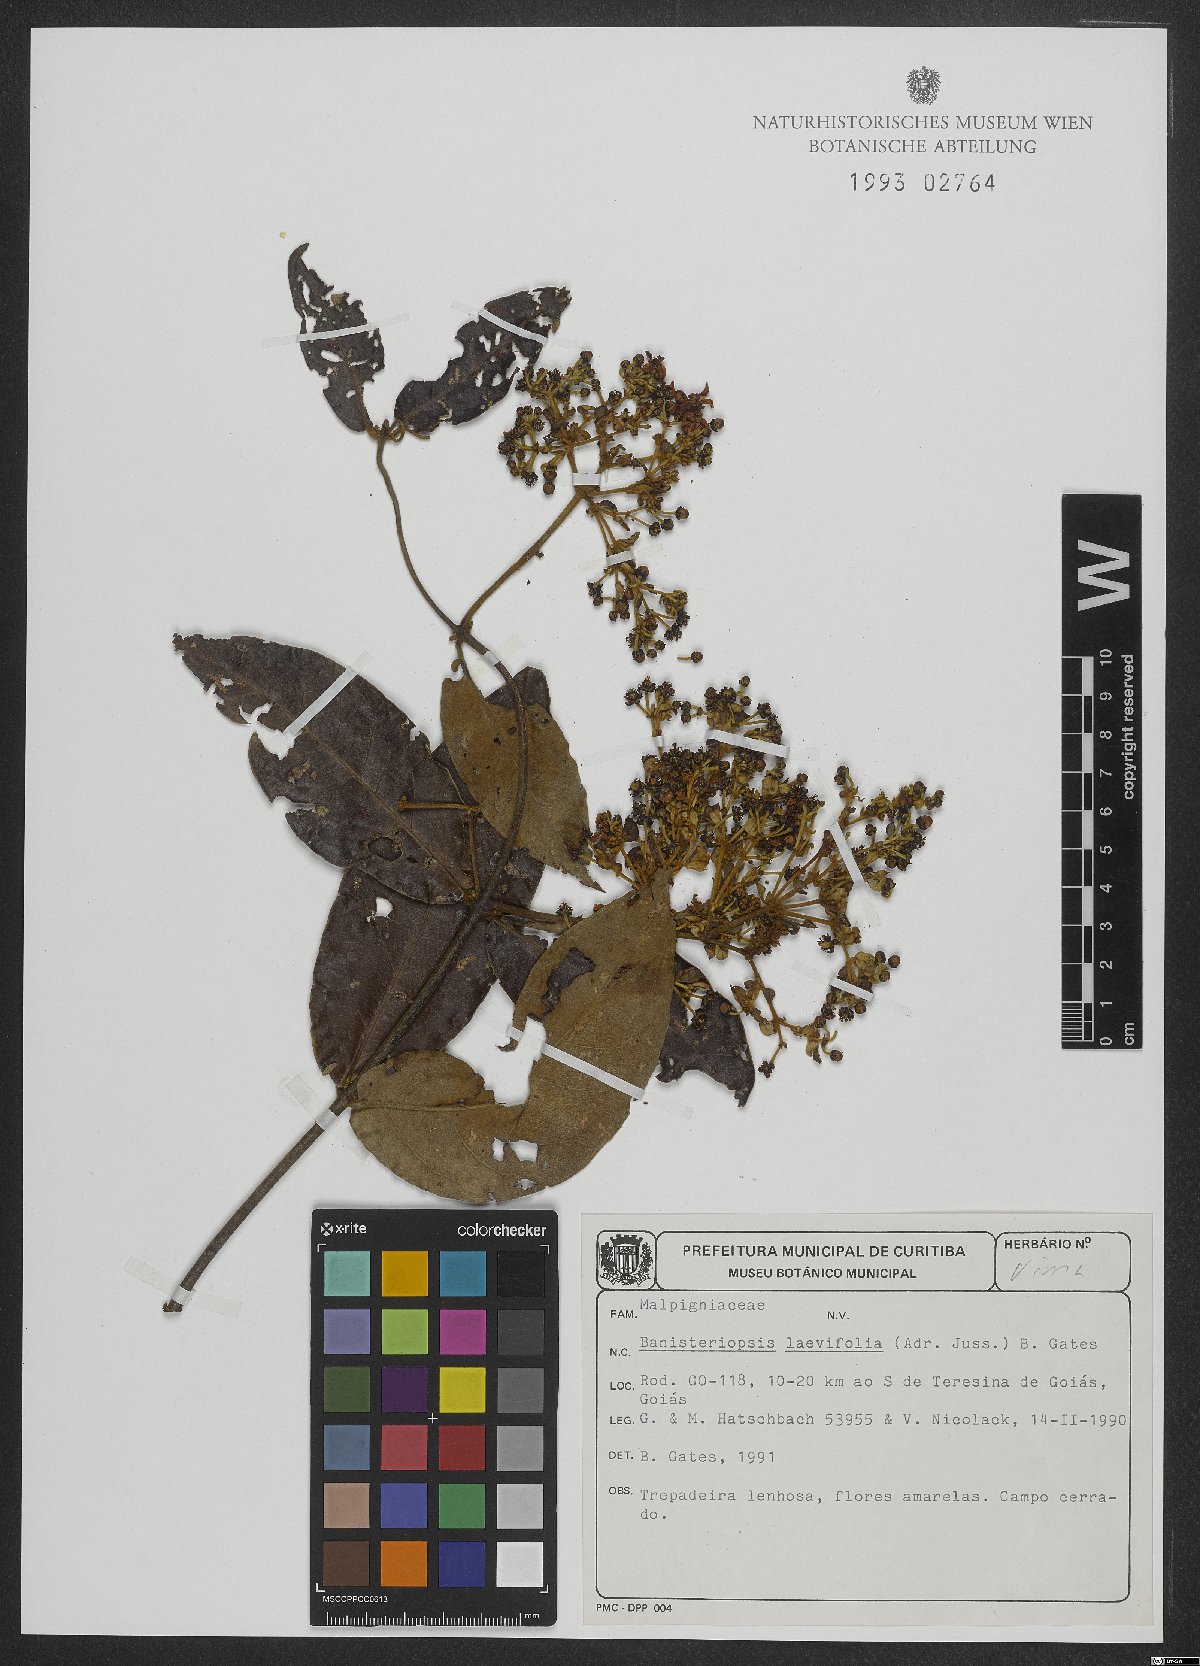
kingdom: Plantae
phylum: Tracheophyta
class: Magnoliopsida
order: Malpighiales
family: Malpighiaceae
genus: Banisteriopsis
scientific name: Banisteriopsis laevifolia
